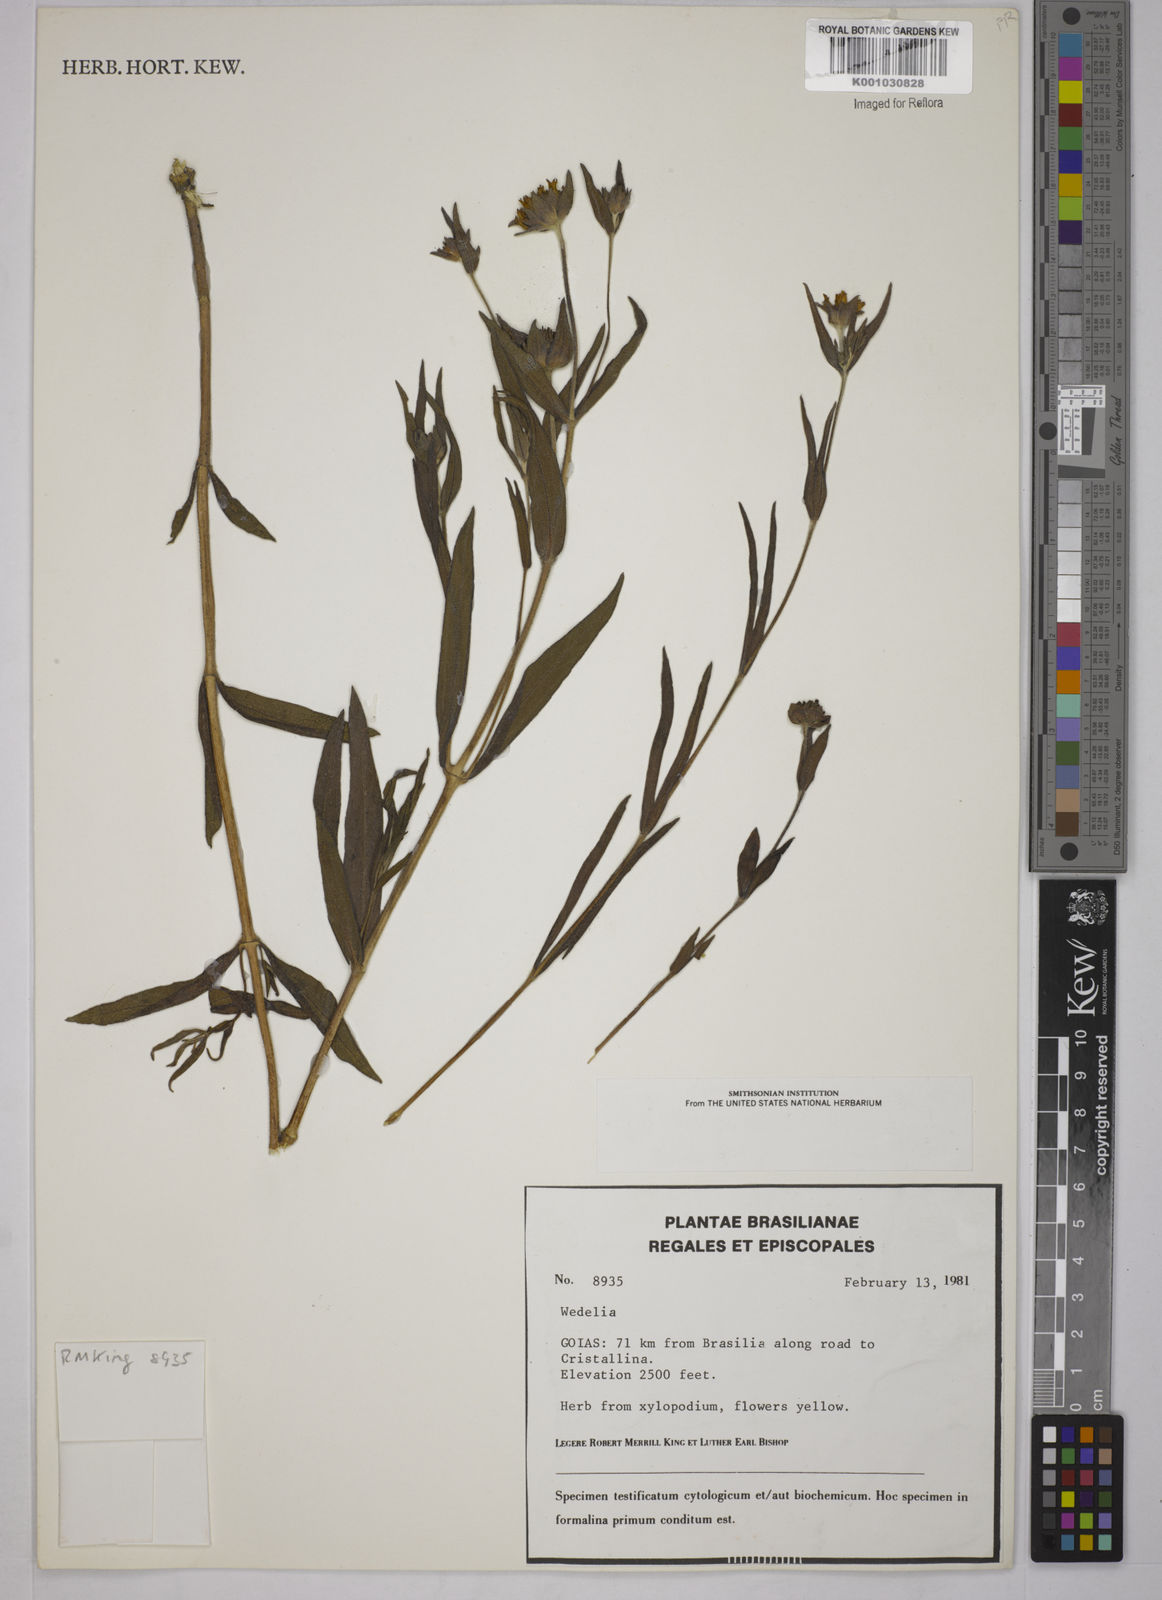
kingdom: Plantae
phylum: Tracheophyta
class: Magnoliopsida
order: Asterales
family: Asteraceae
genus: Wedelia
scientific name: Wedelia oligocephala
